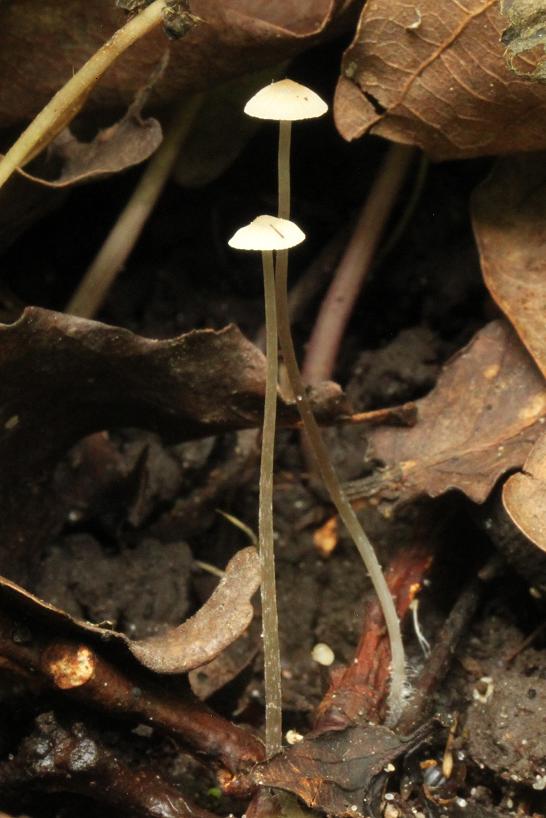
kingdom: Fungi
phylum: Basidiomycota
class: Agaricomycetes
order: Agaricales
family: Mycenaceae
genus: Mycena
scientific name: Mycena vitilis
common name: blankstokket huesvamp
